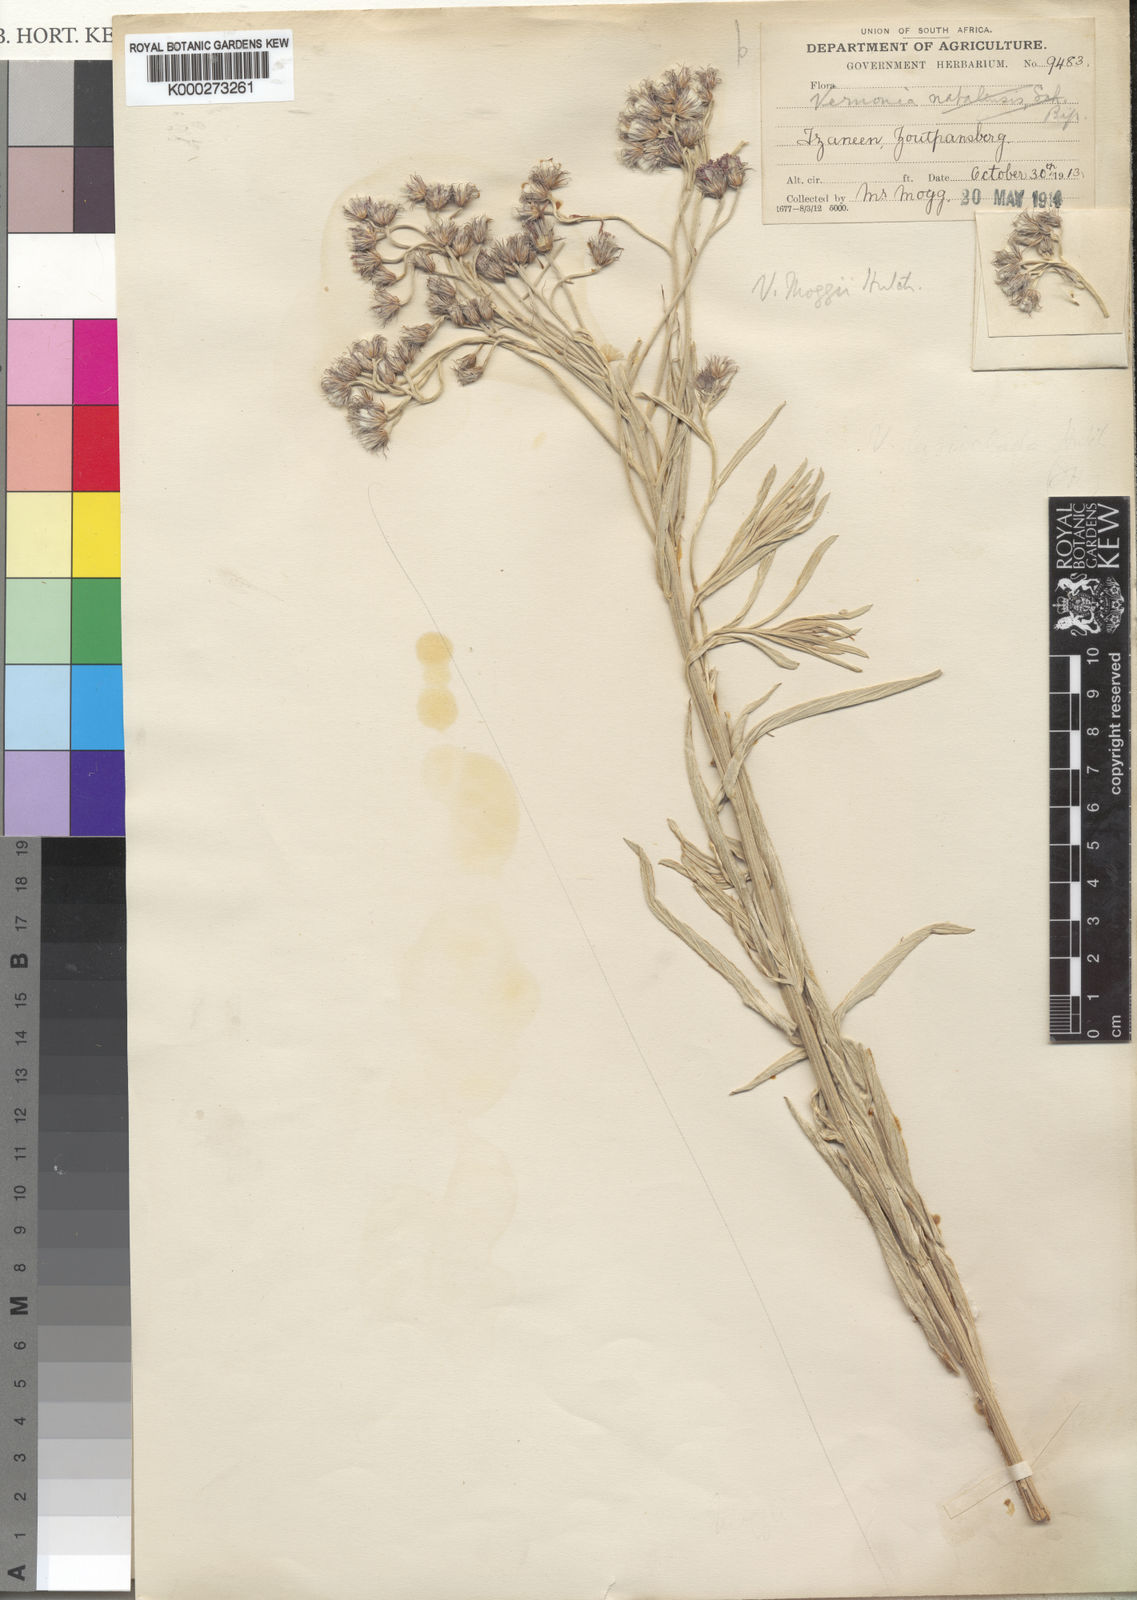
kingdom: Plantae
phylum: Tracheophyta
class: Magnoliopsida
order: Asterales
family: Asteraceae
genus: Vernonia
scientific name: Vernonia
